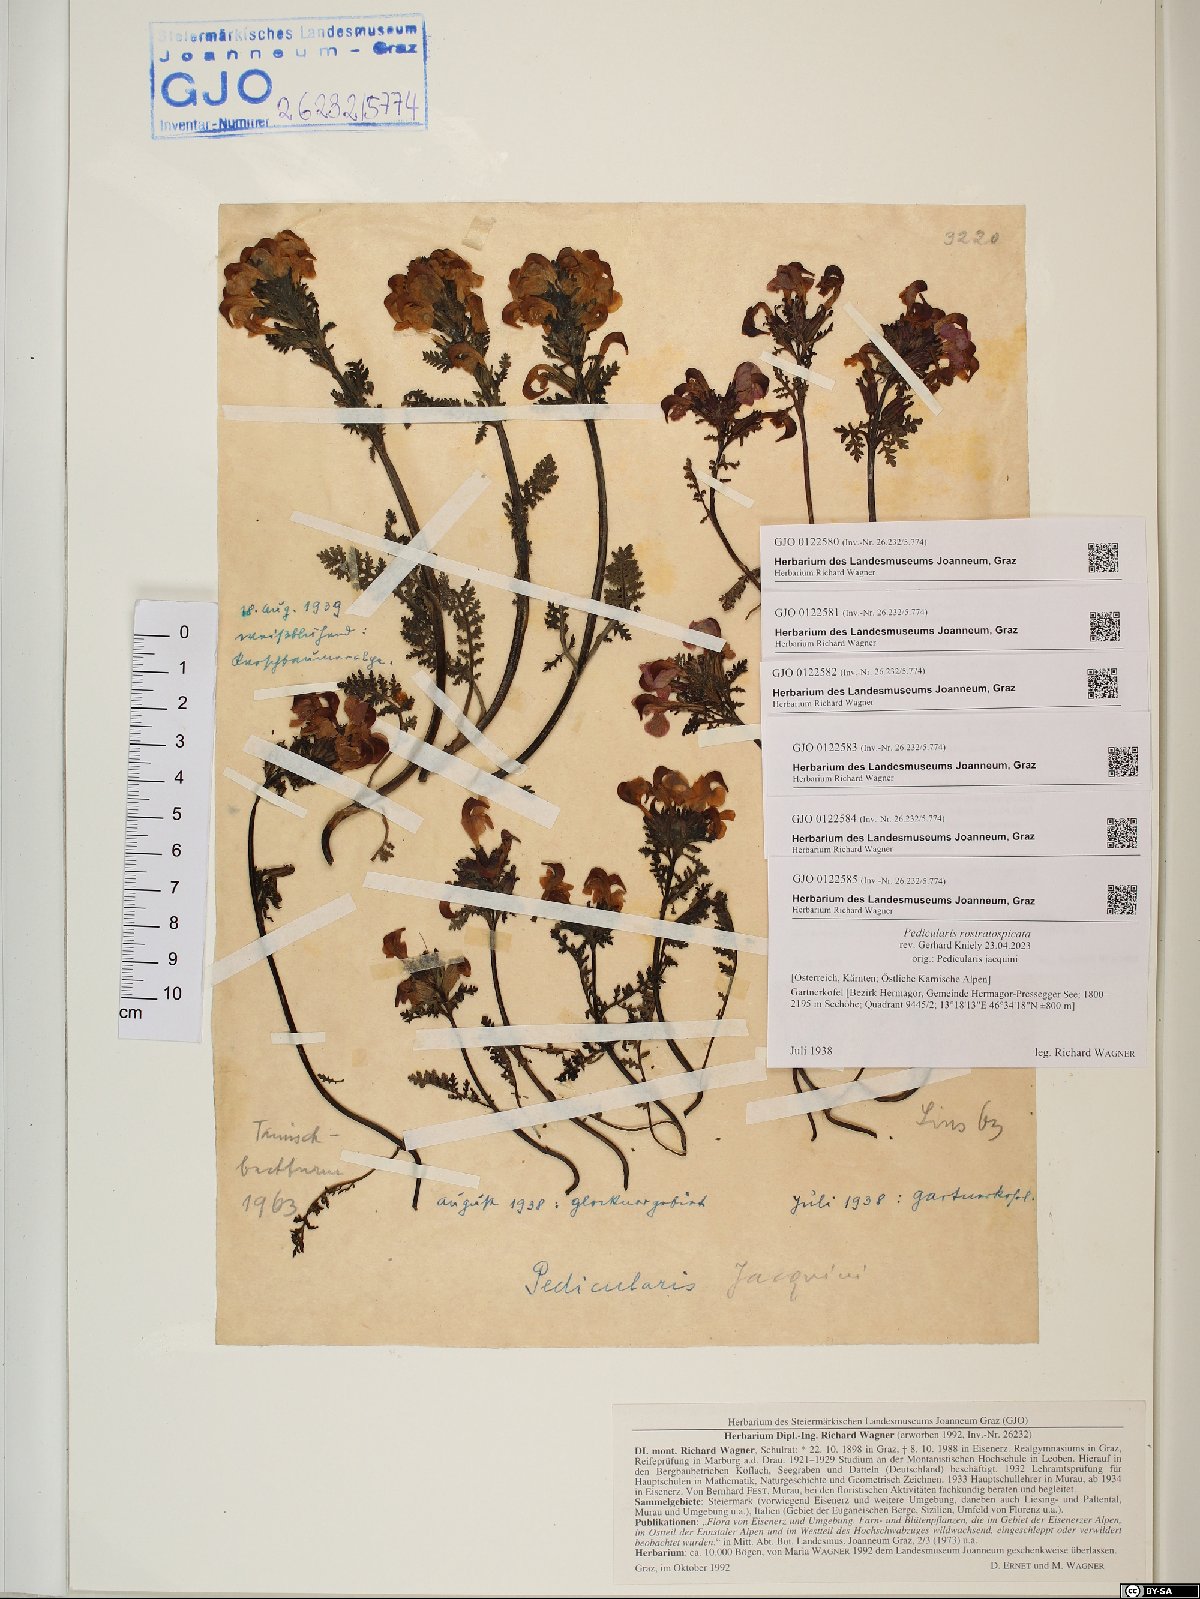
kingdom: Plantae
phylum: Tracheophyta
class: Magnoliopsida
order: Lamiales
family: Orobanchaceae
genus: Pedicularis
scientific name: Pedicularis rostratocapitata
